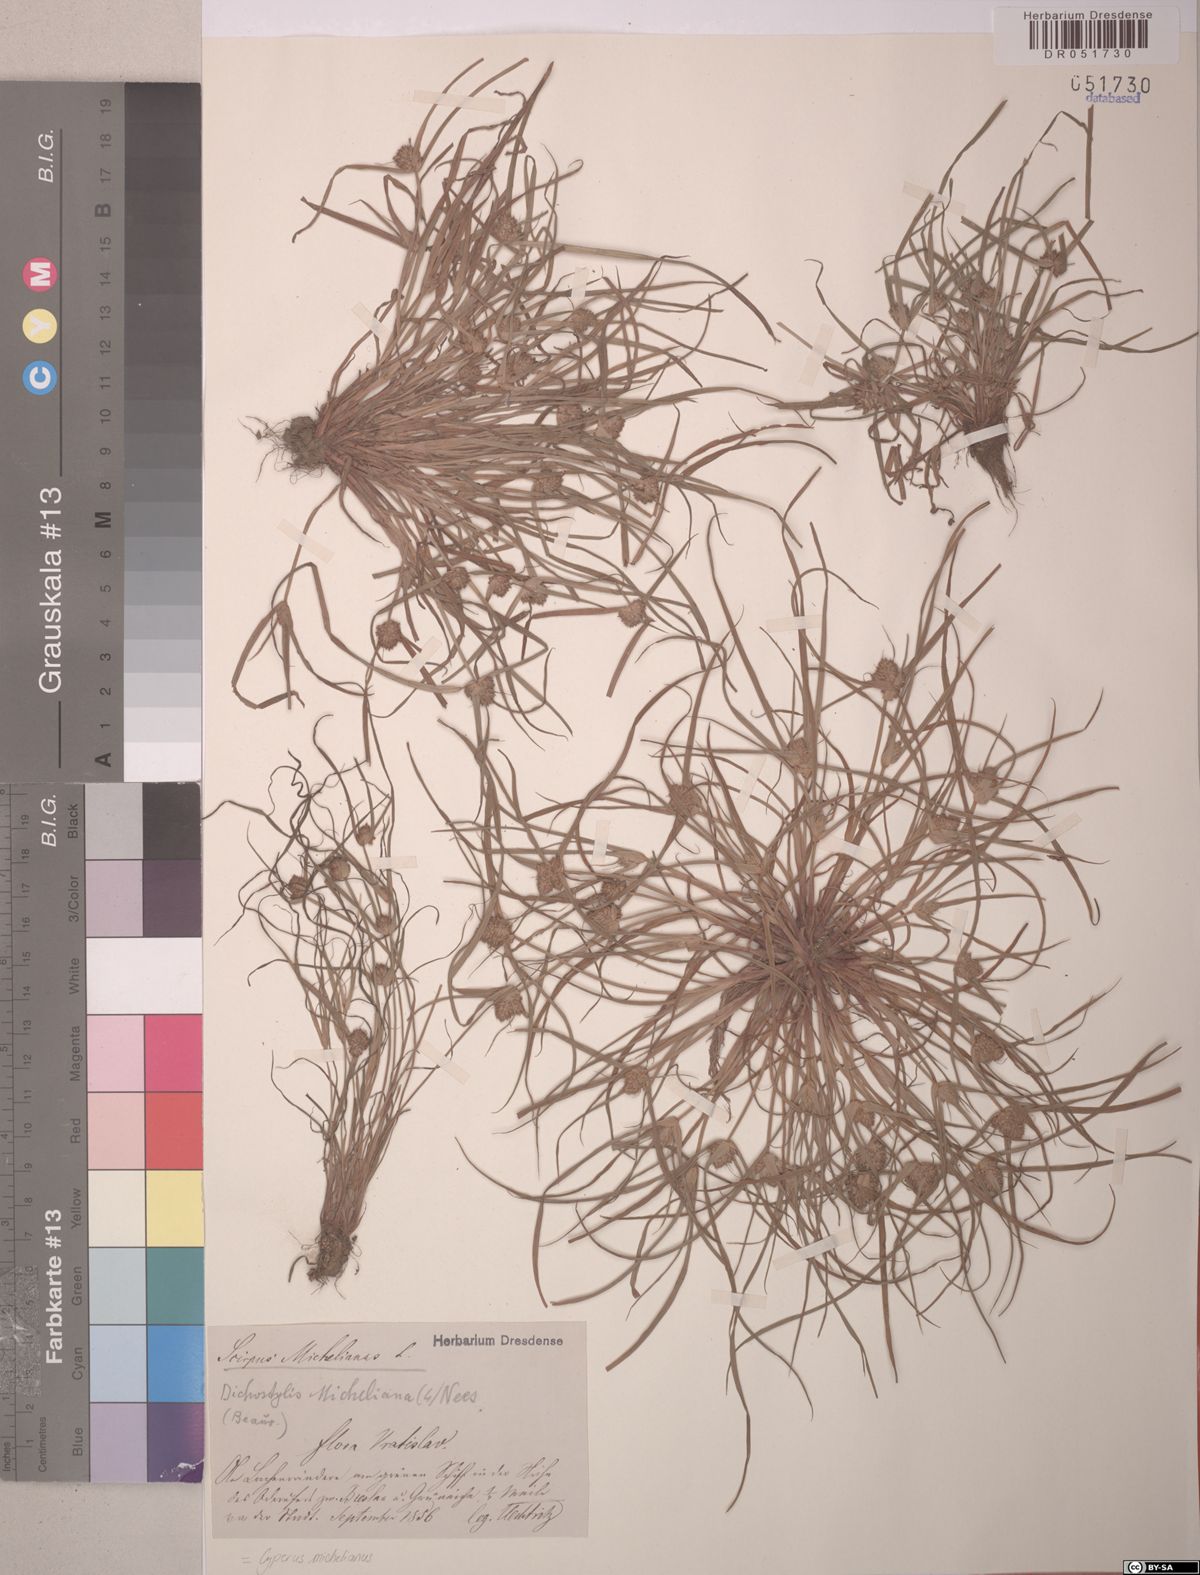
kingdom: Plantae
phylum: Tracheophyta
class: Liliopsida
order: Poales
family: Cyperaceae
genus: Cyperus
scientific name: Cyperus michelianus
